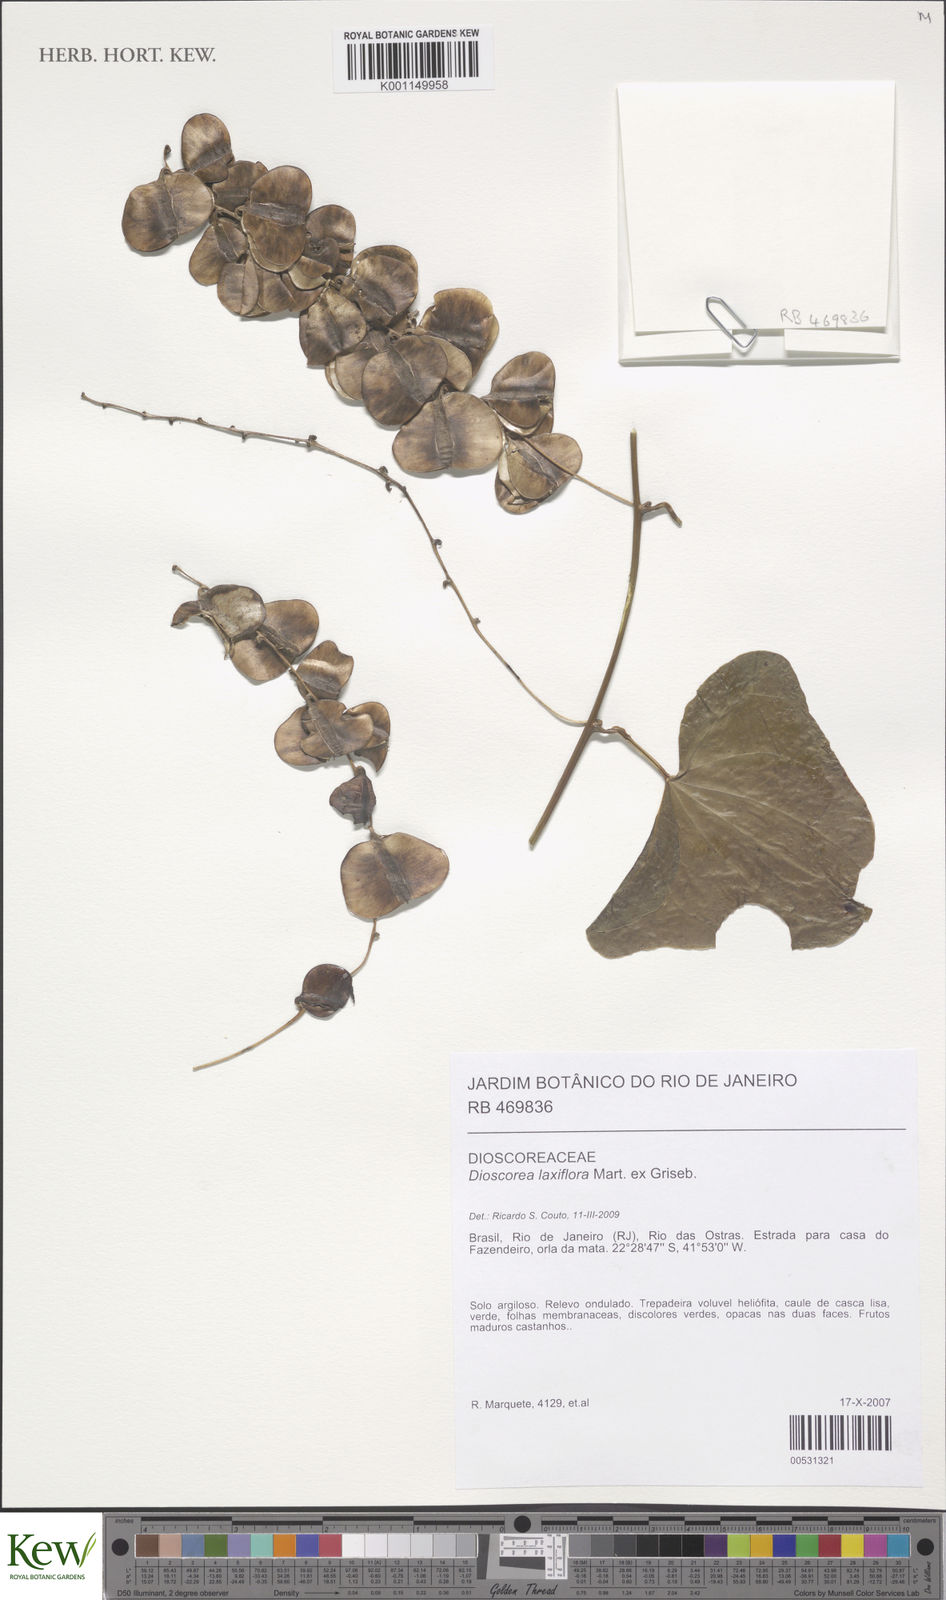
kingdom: Plantae
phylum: Tracheophyta
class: Liliopsida
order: Dioscoreales
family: Dioscoreaceae
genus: Dioscorea
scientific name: Dioscorea laxiflora
